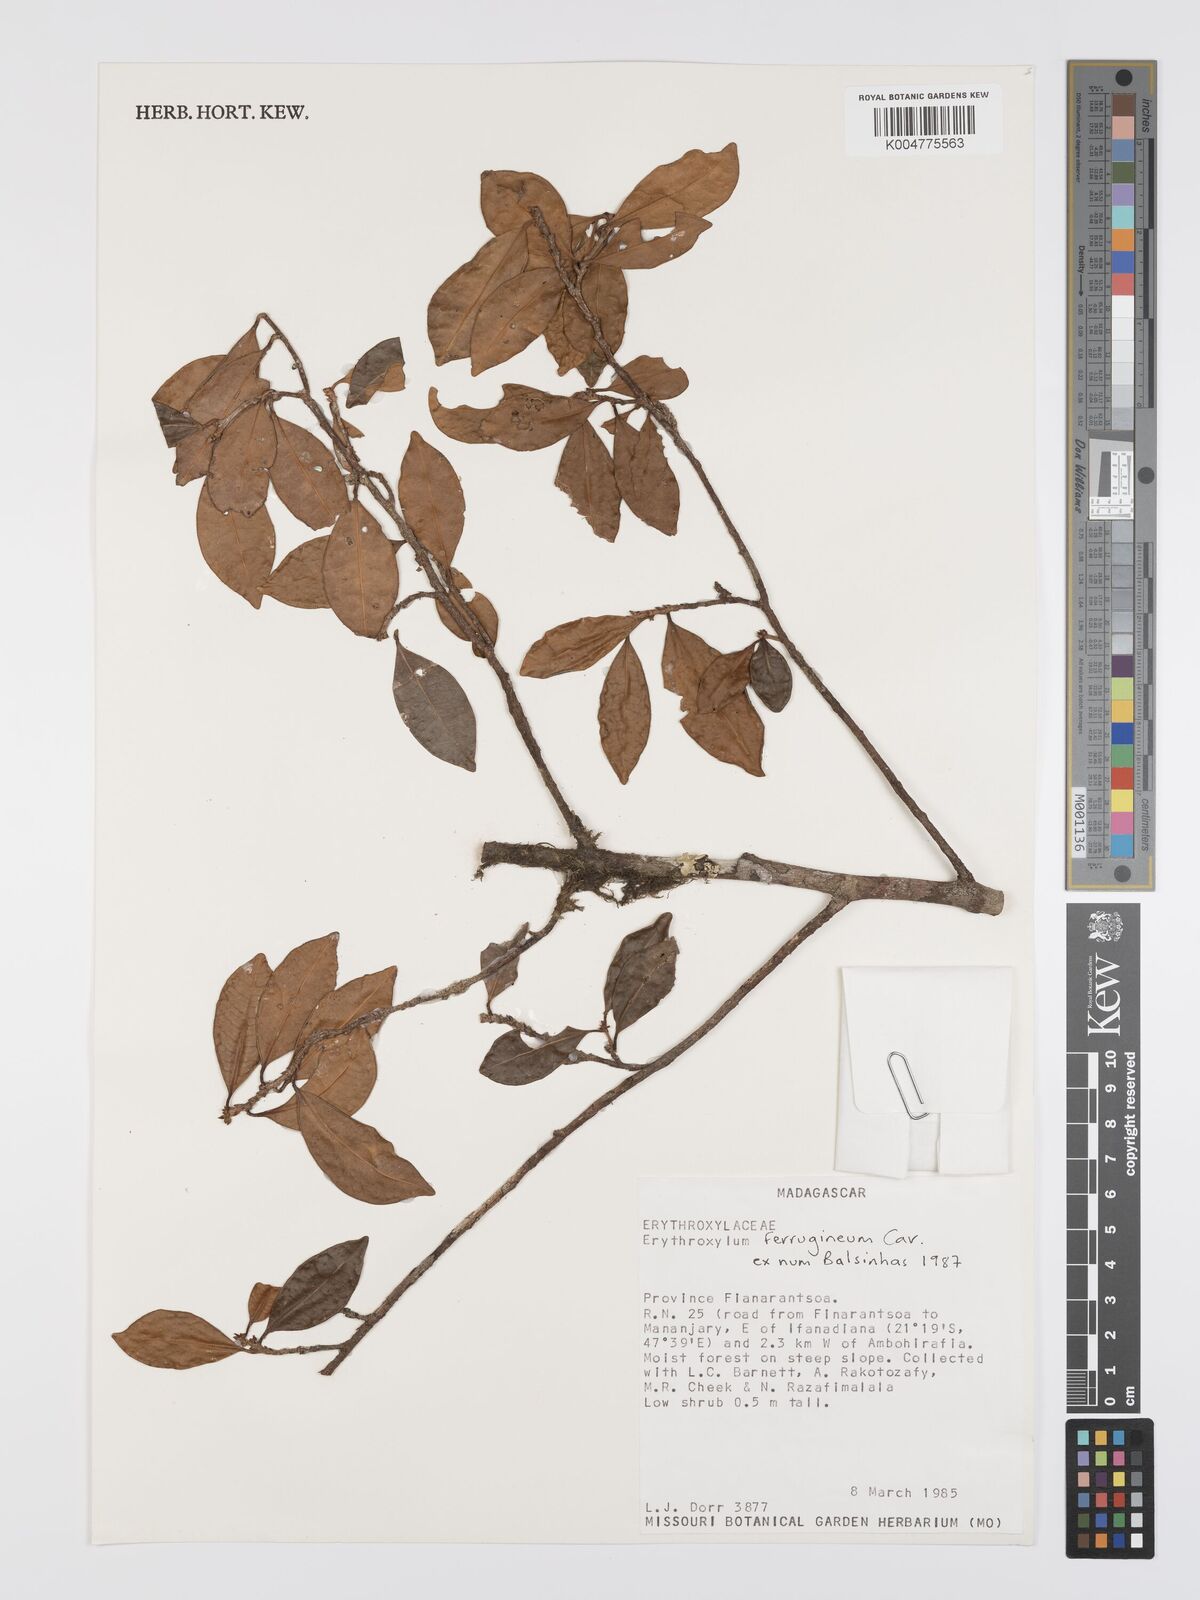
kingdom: Plantae
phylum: Tracheophyta
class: Magnoliopsida
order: Malpighiales
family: Erythroxylaceae
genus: Erythroxylum
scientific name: Erythroxylum ferrugineum
